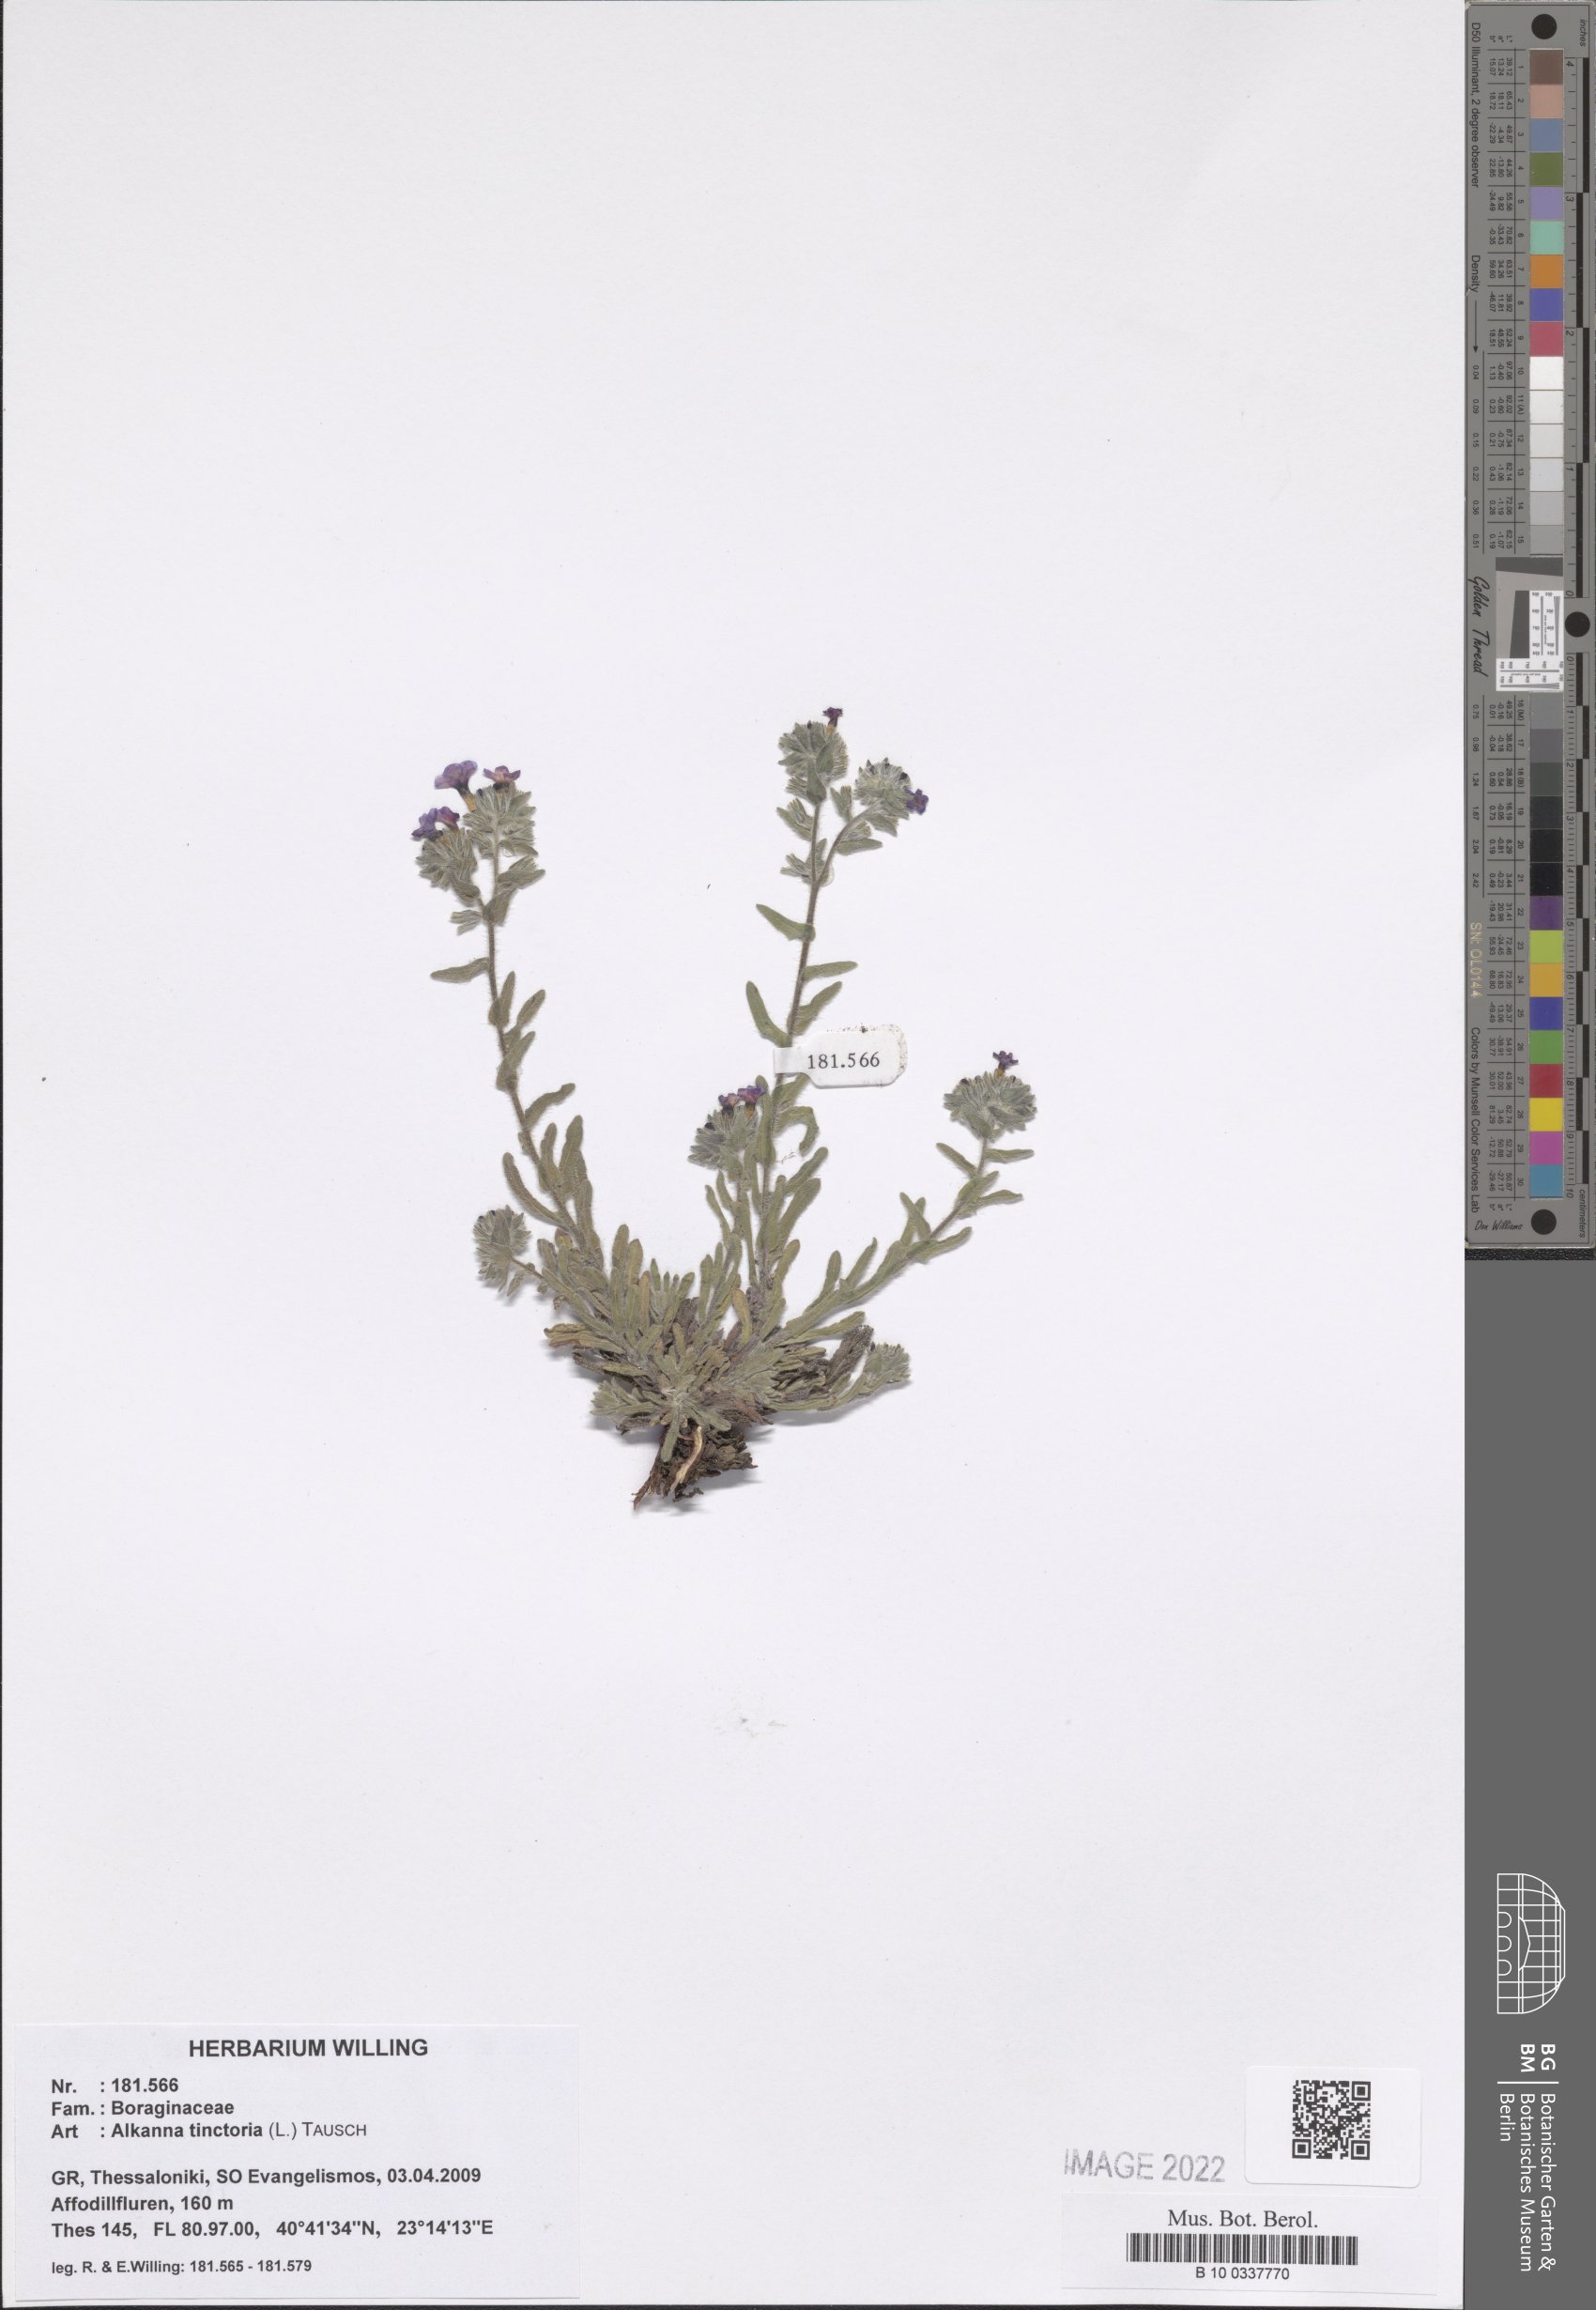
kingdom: Plantae
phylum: Tracheophyta
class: Magnoliopsida
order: Boraginales
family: Boraginaceae
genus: Alkanna
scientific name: Alkanna tinctoria
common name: Dyer's-alkanet
